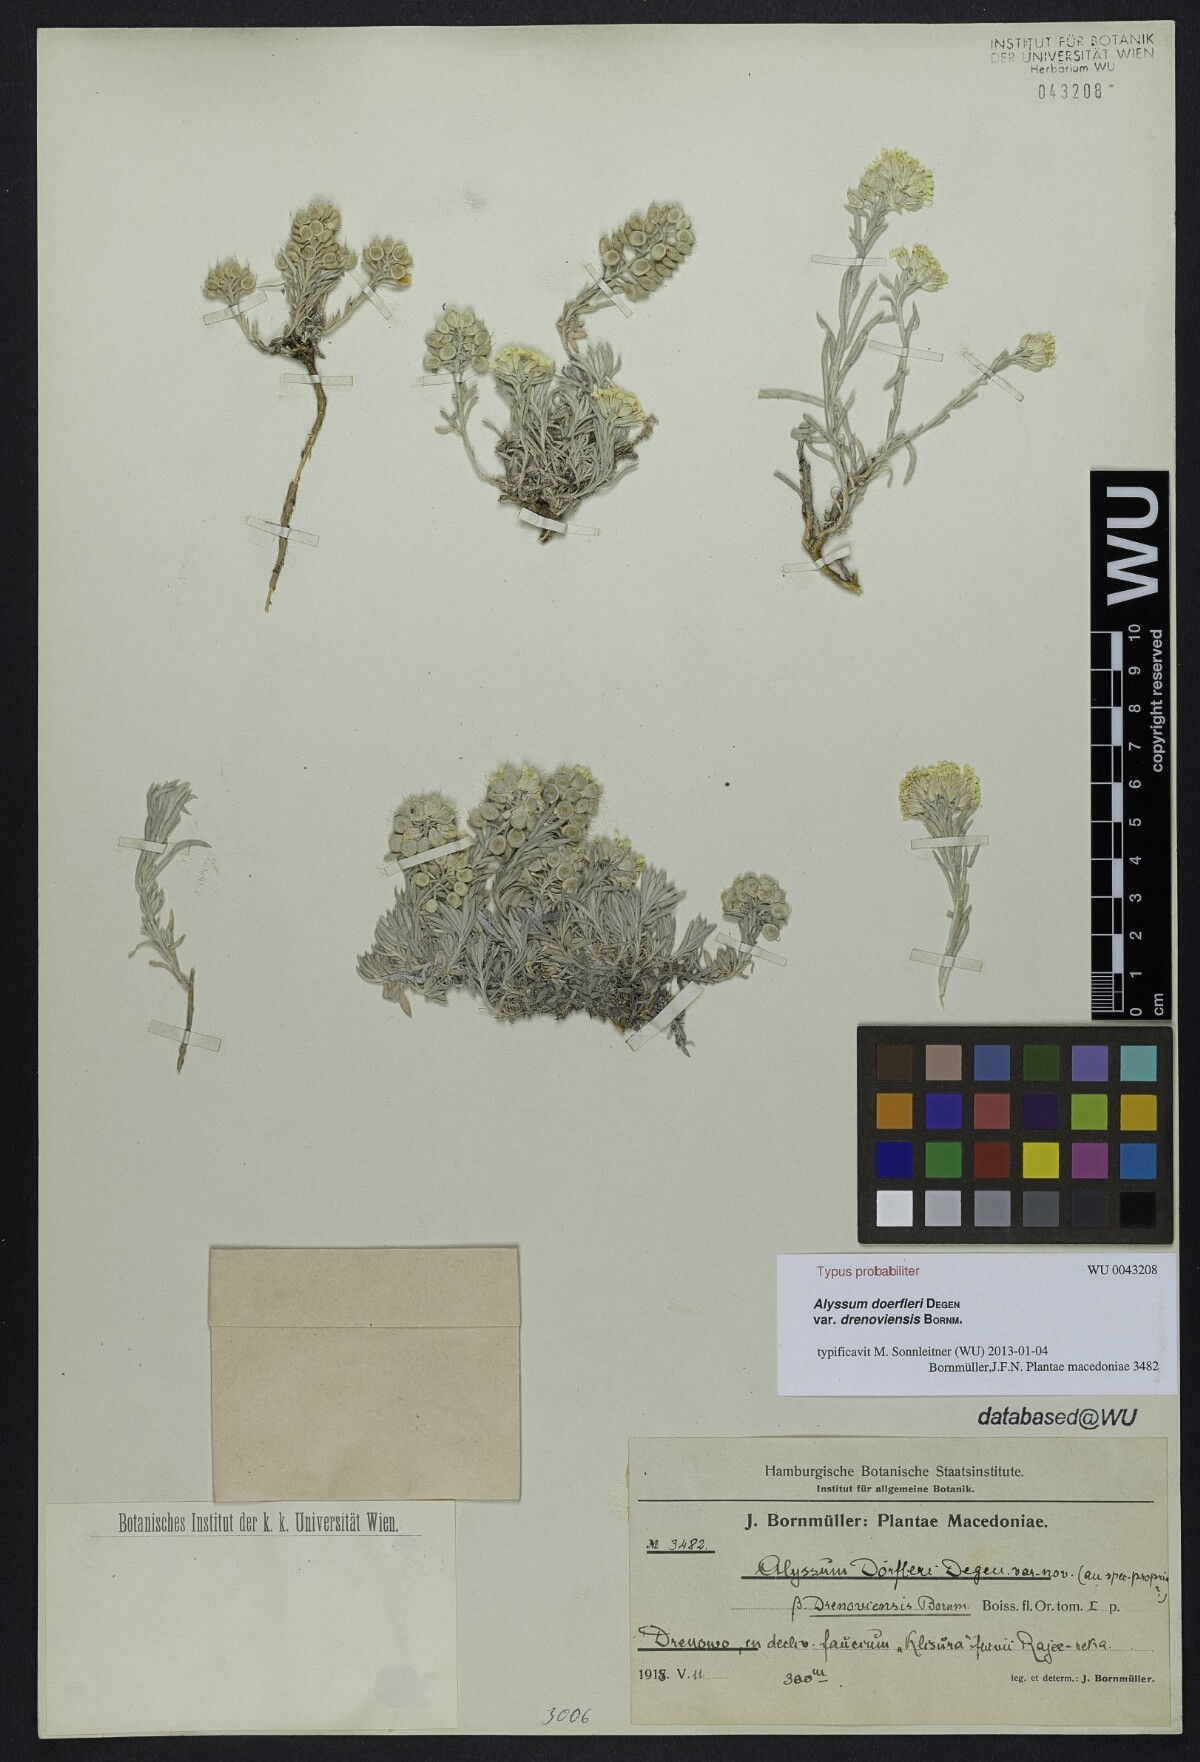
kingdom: Plantae
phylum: Tracheophyta
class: Magnoliopsida
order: Brassicales
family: Brassicaceae
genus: Alyssum
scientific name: Alyssum doerfleri
